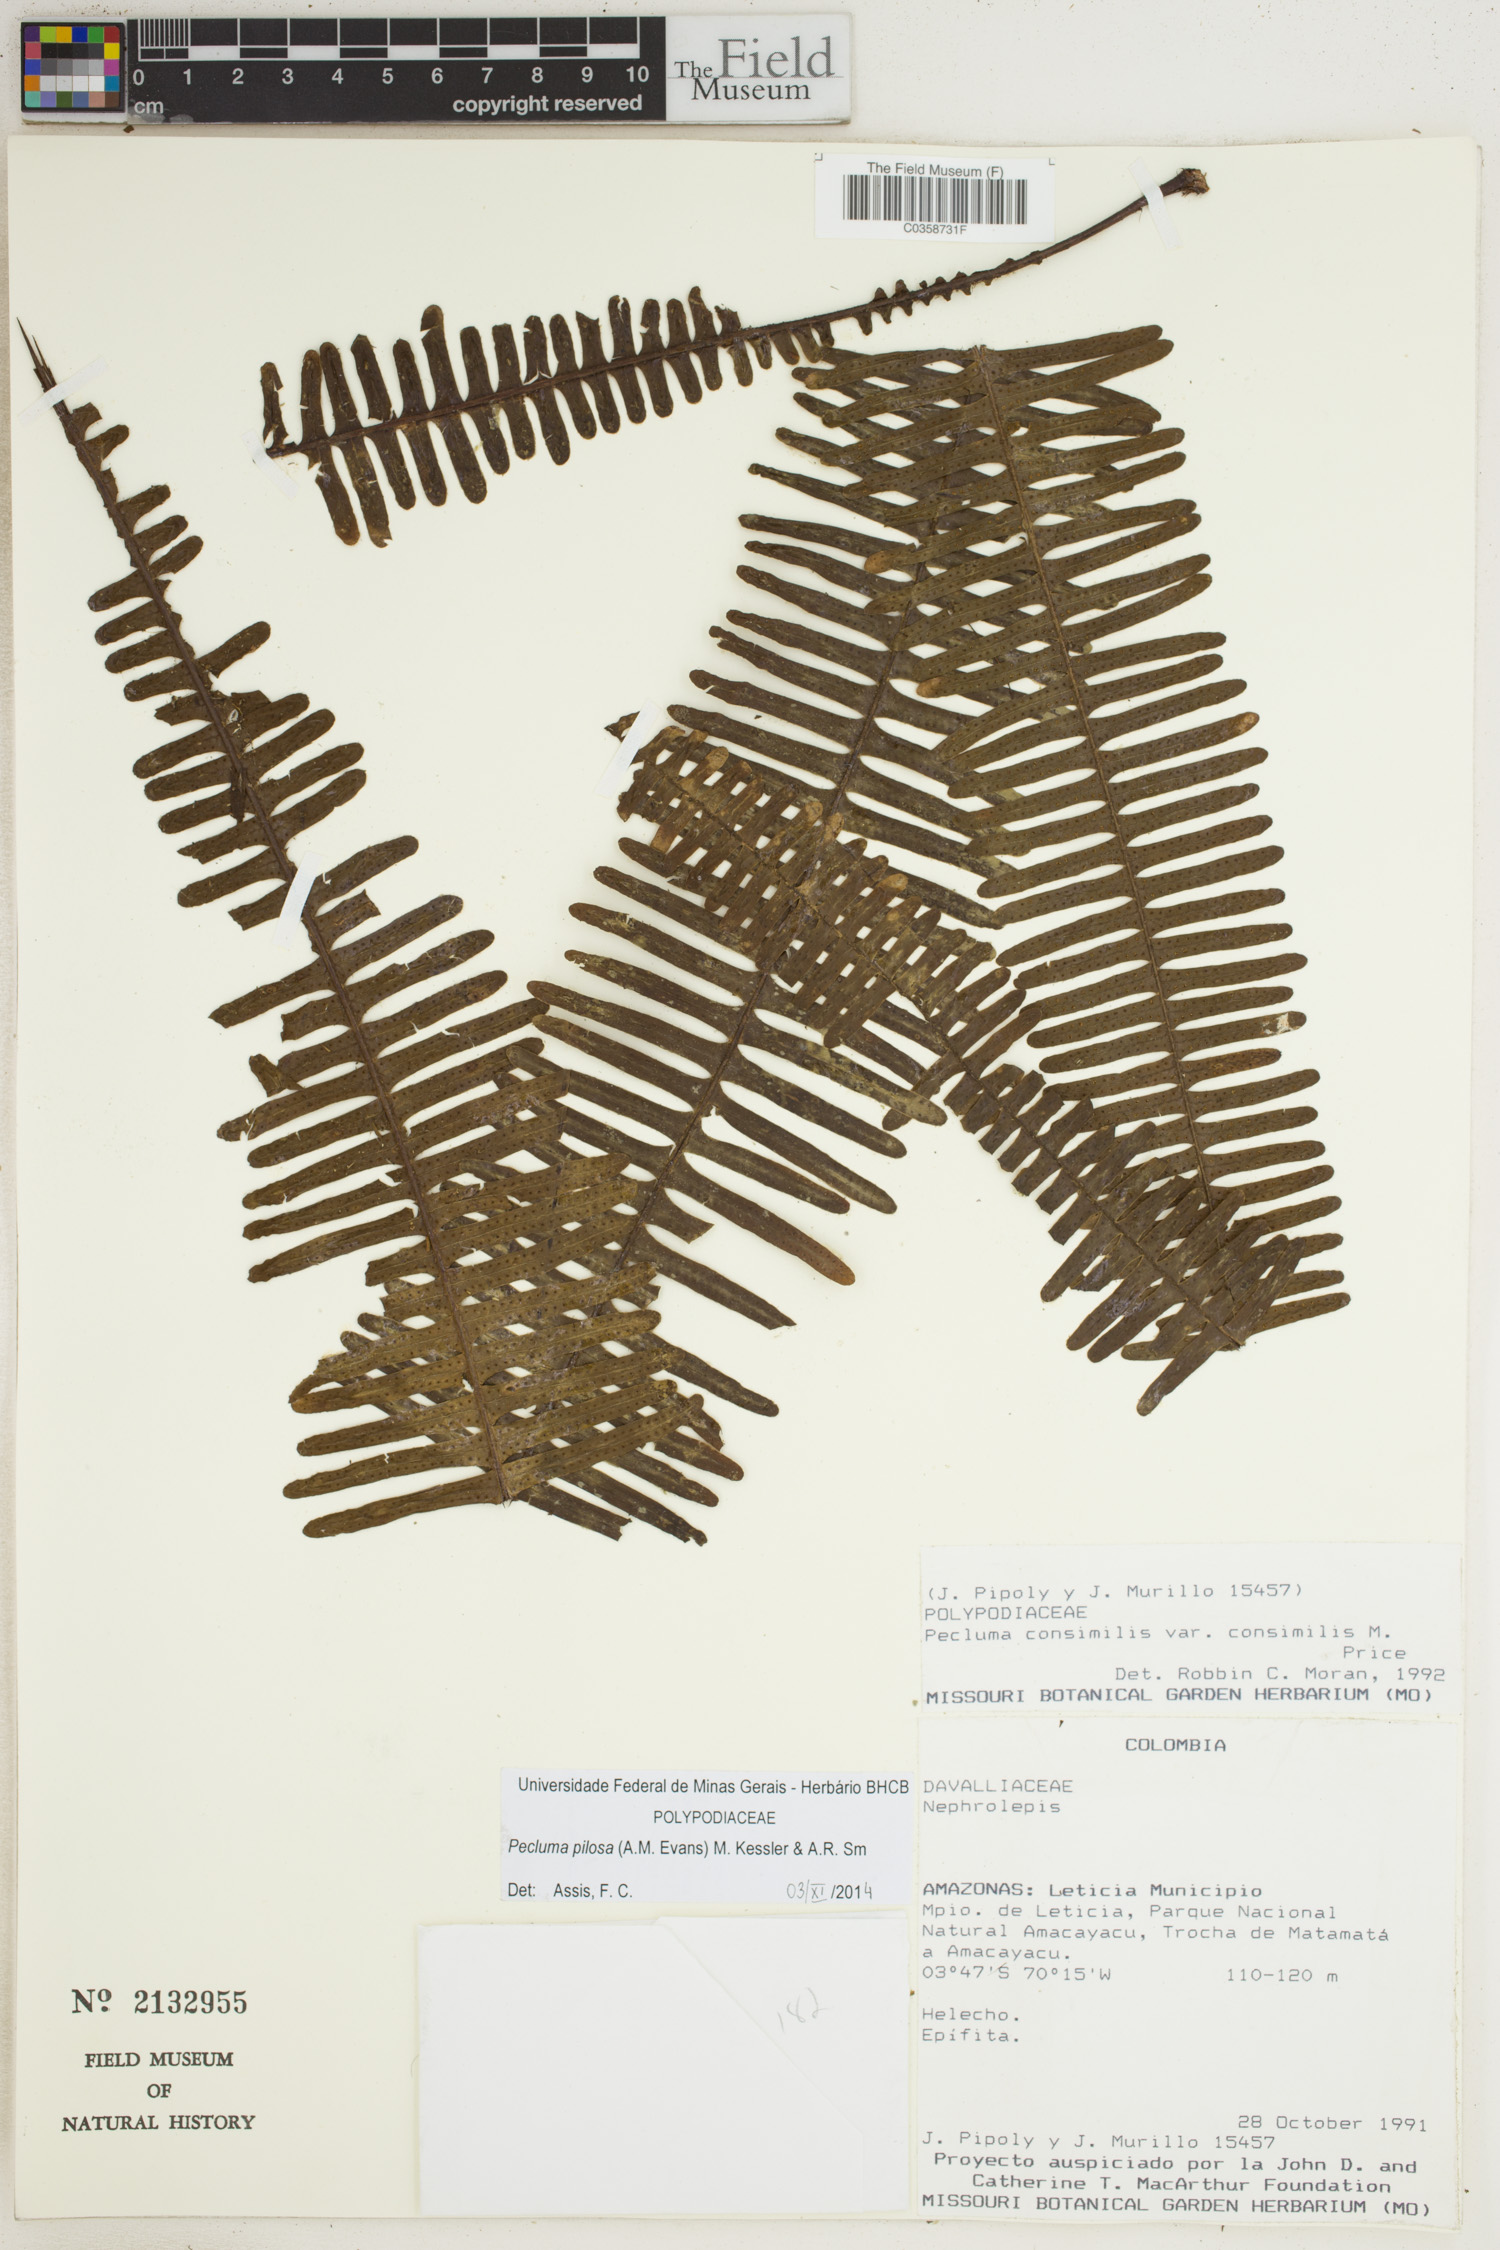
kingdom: Plantae
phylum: Tracheophyta
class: Polypodiopsida
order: Polypodiales
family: Polypodiaceae
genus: Pecluma
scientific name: Pecluma pilosa
